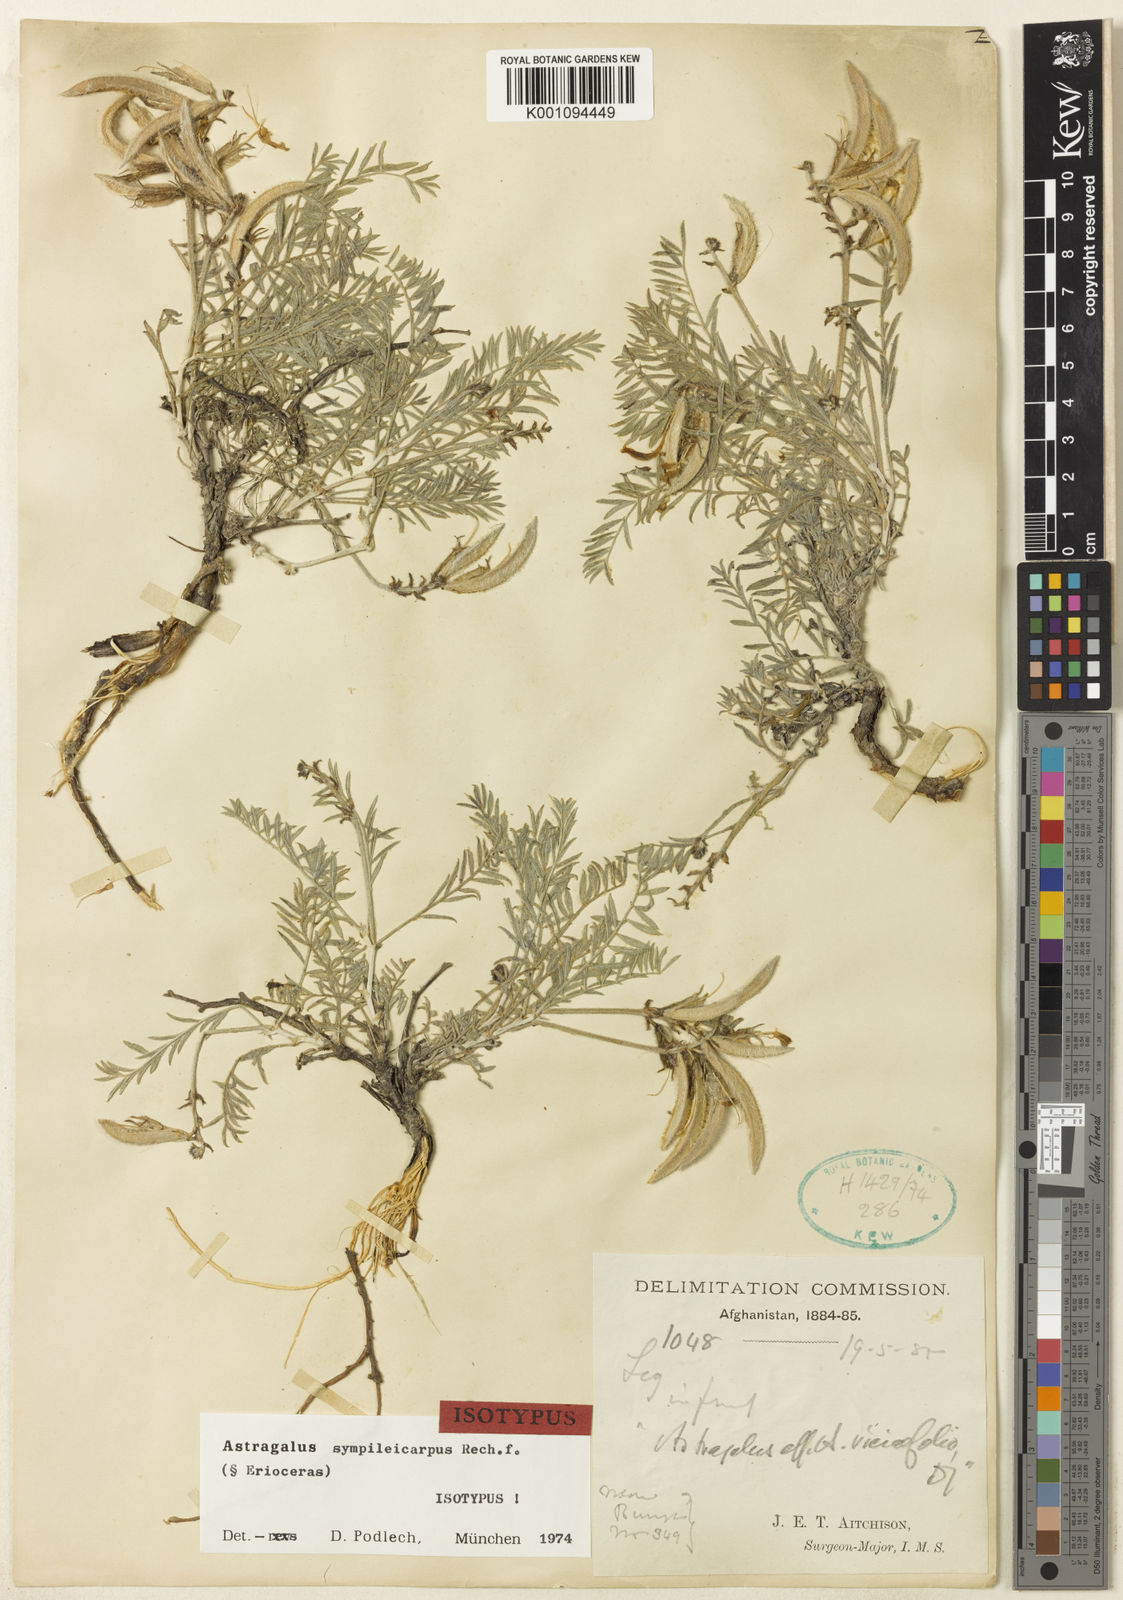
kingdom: Plantae
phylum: Tracheophyta
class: Magnoliopsida
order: Fabales
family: Fabaceae
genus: Astragalus
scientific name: Astragalus
